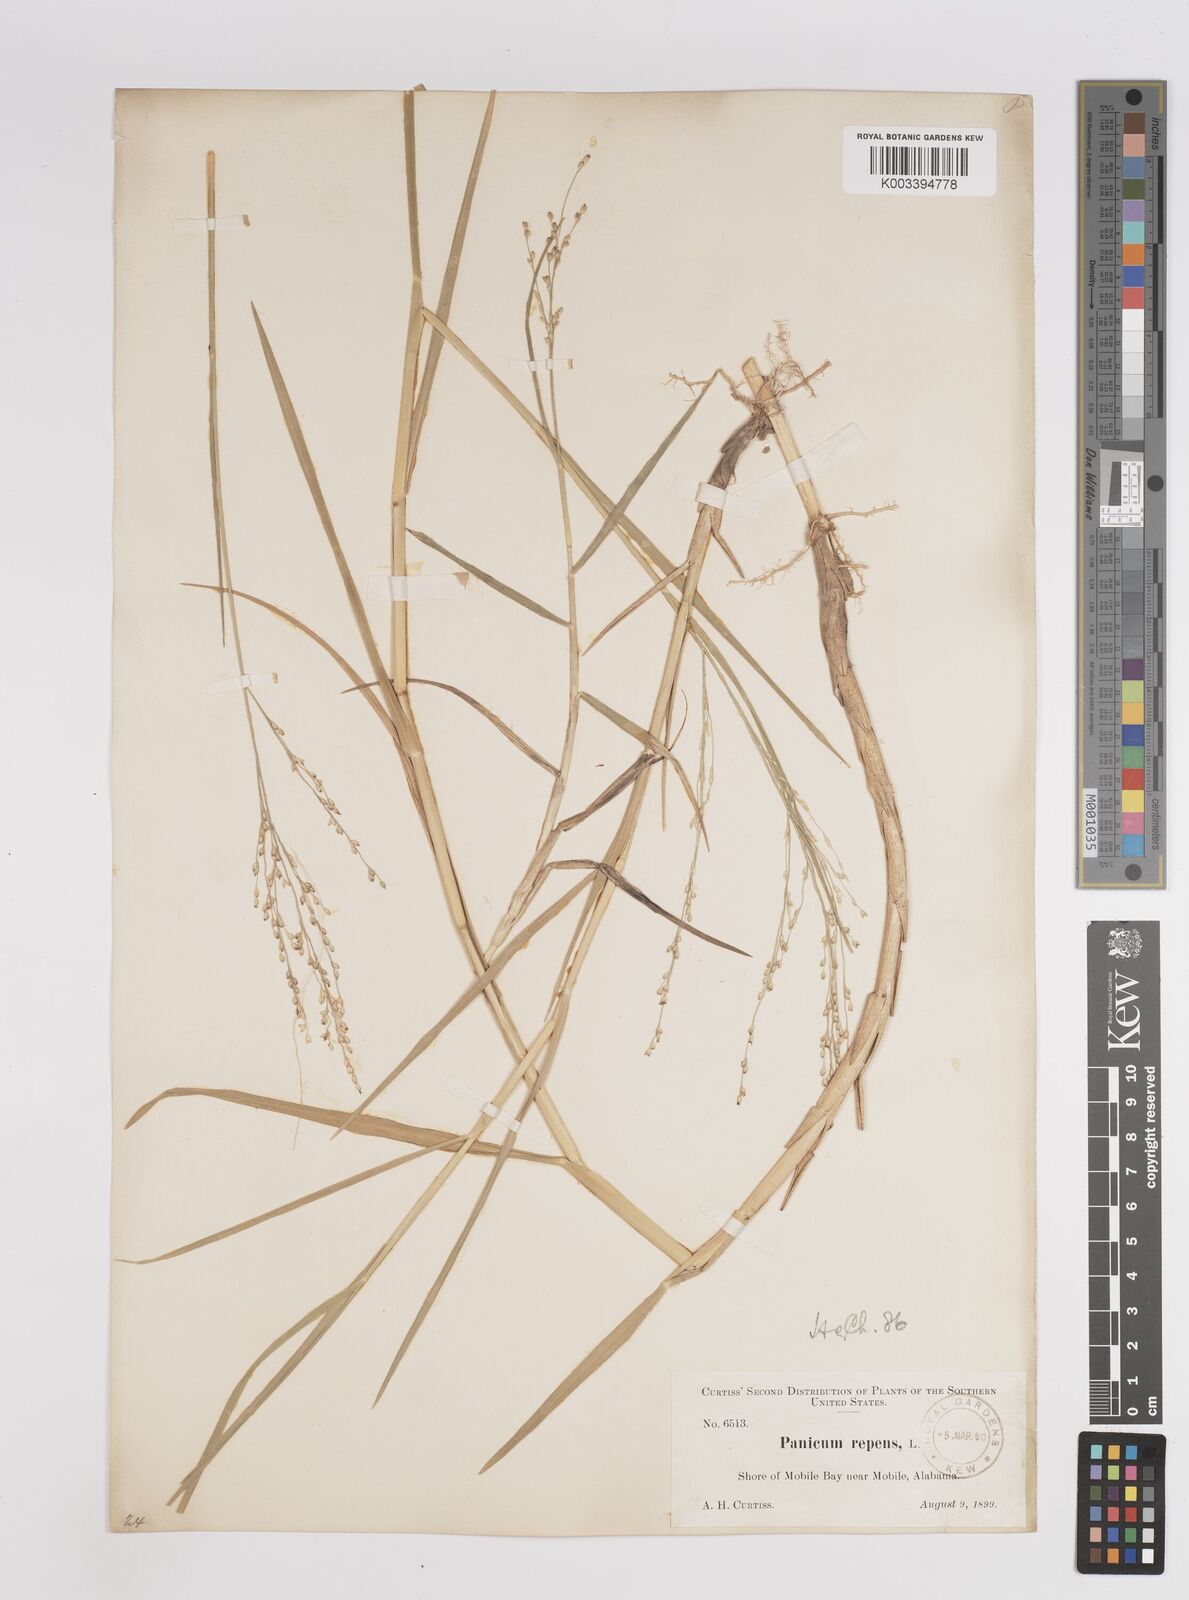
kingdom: Plantae
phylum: Tracheophyta
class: Liliopsida
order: Poales
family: Poaceae
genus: Panicum
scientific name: Panicum repens
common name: Torpedo grass
